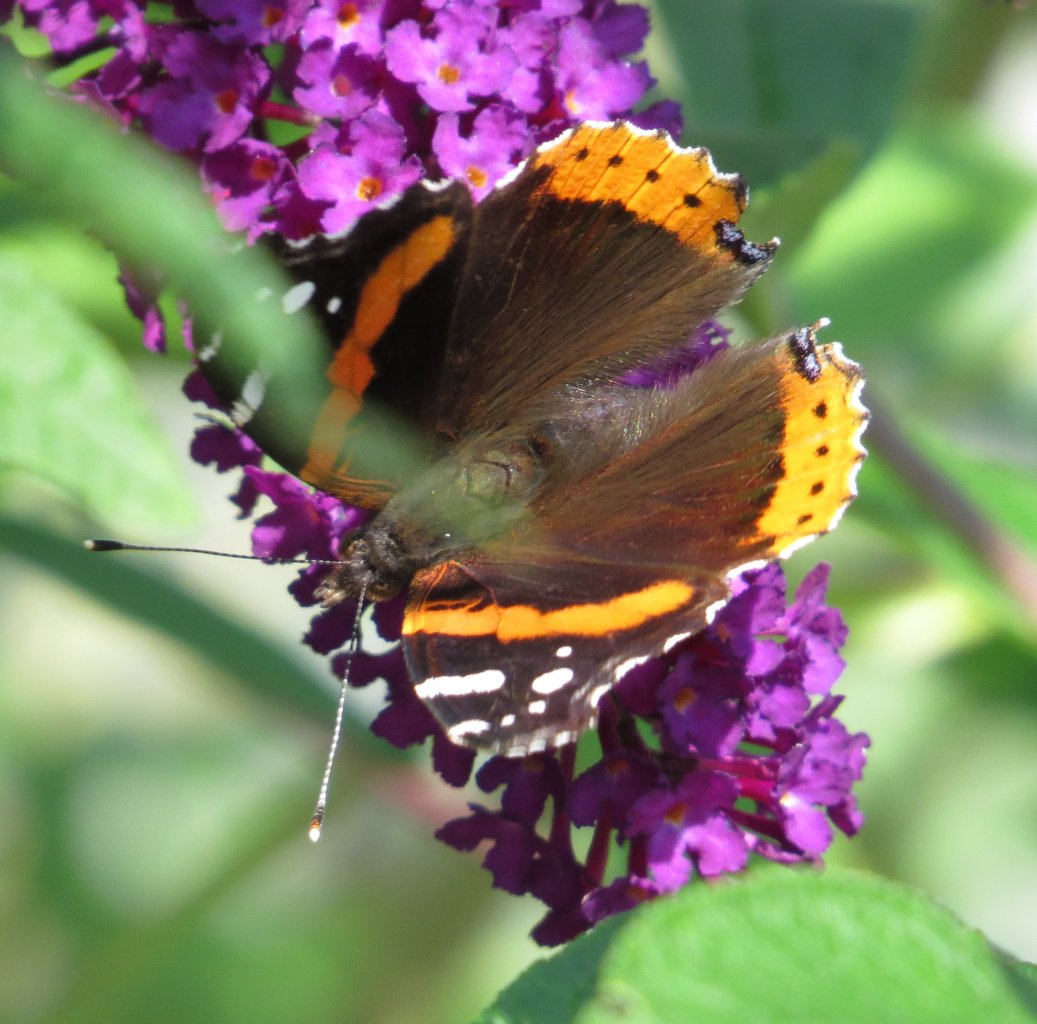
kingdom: Animalia
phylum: Arthropoda
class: Insecta
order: Lepidoptera
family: Nymphalidae
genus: Vanessa
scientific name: Vanessa atalanta
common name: Red Admiral
